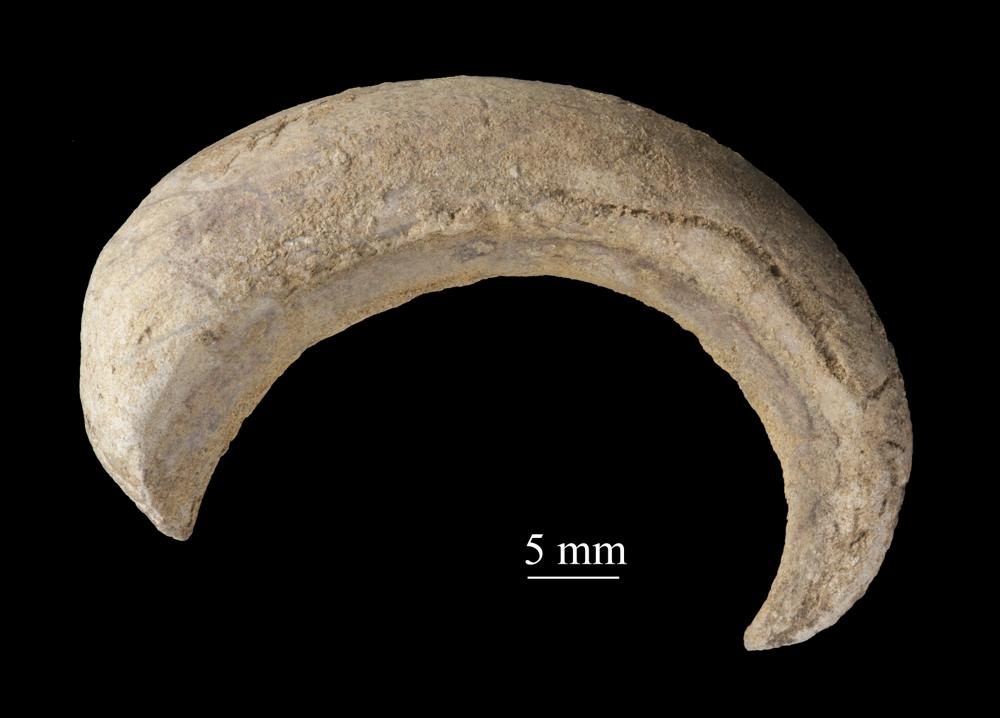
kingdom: Animalia
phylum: Mollusca
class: Gastropoda
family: Euomphalidae
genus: Ecculiomphalus
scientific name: Ecculiomphalus Eccyliopterus centrifugus
